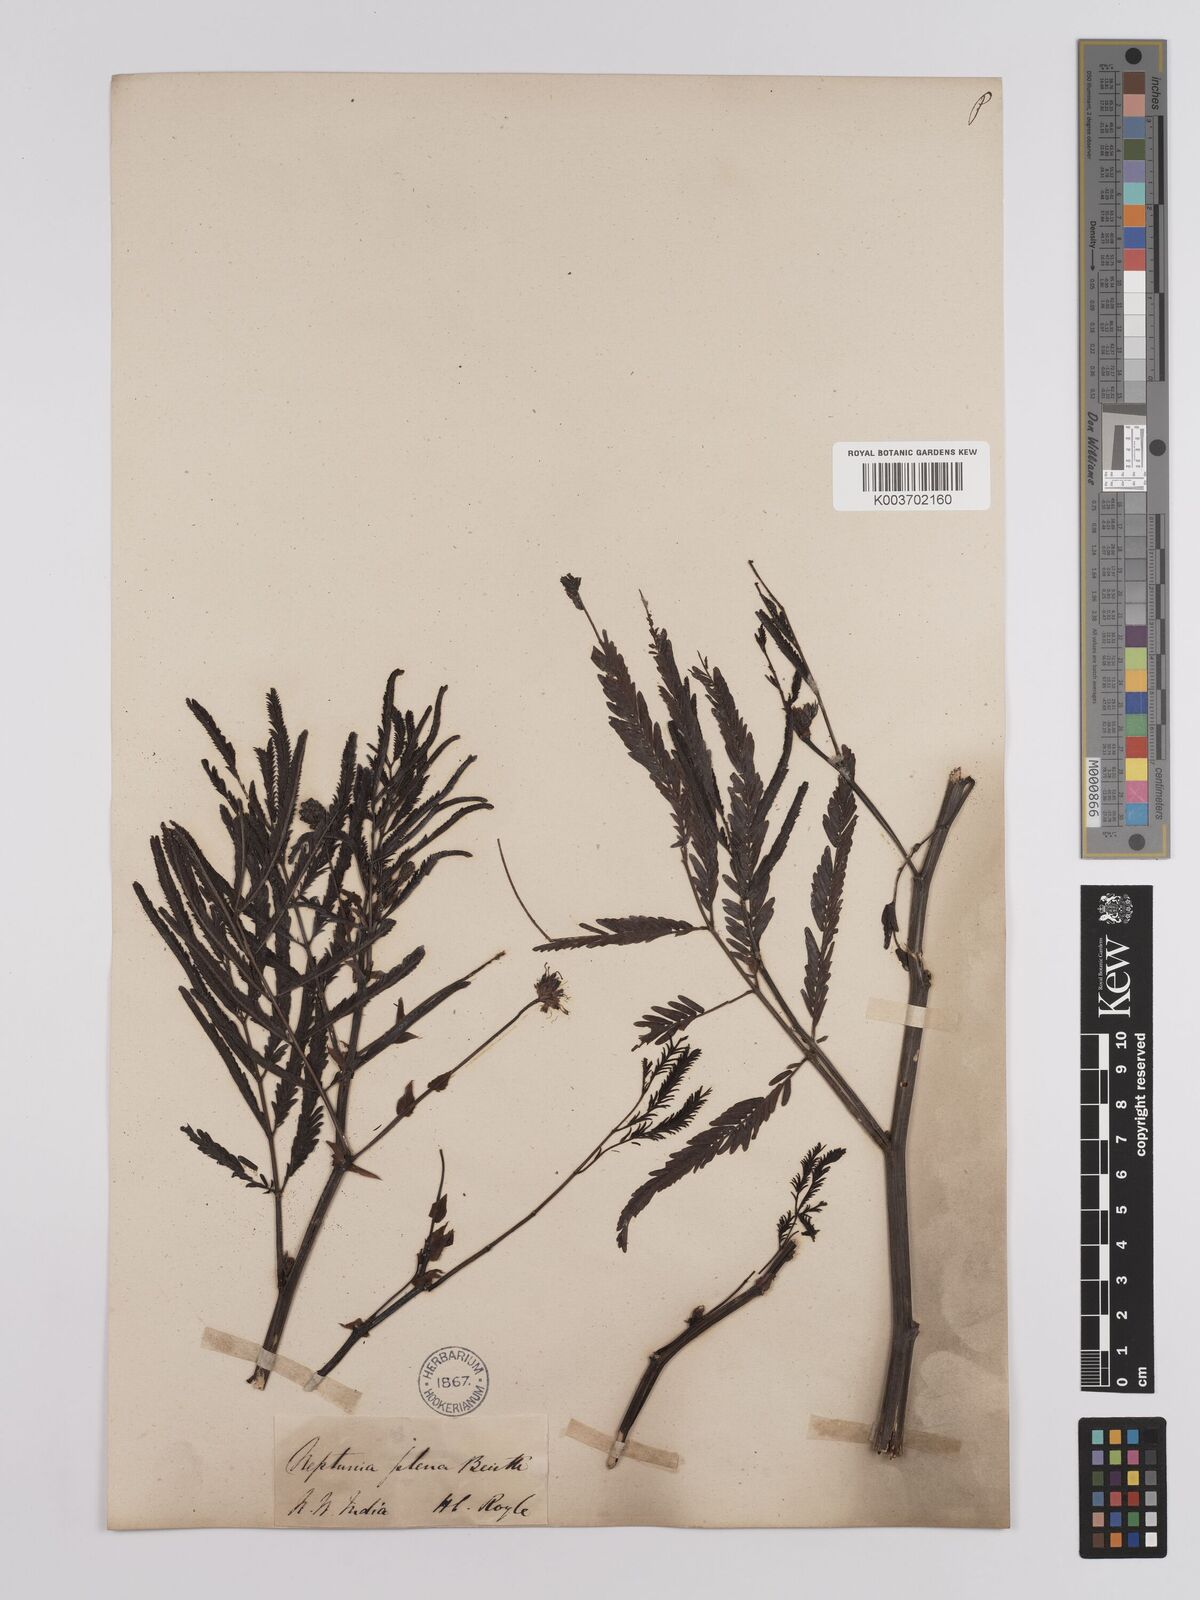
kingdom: Plantae
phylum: Tracheophyta
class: Magnoliopsida
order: Fabales
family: Fabaceae
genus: Neptunia
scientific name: Neptunia plena
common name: Dead and awake
